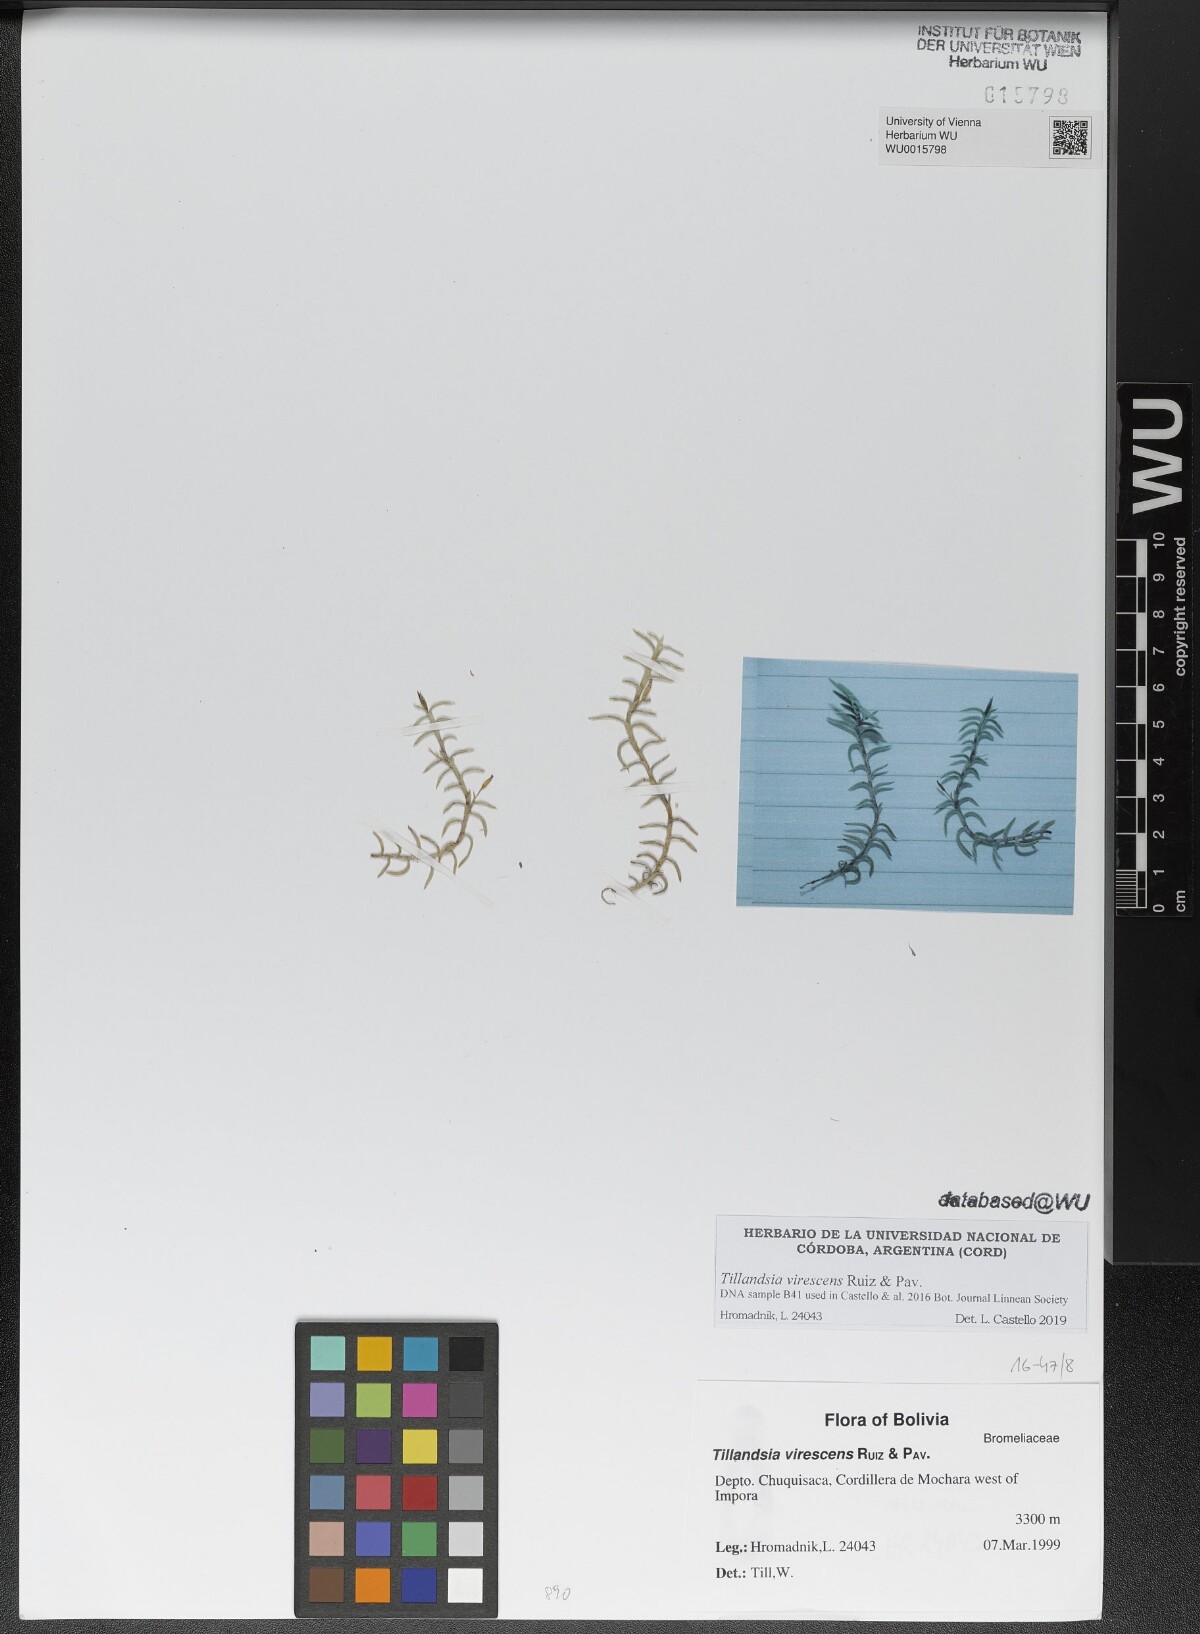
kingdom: Plantae
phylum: Tracheophyta
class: Liliopsida
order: Poales
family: Bromeliaceae
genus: Tillandsia
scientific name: Tillandsia virescens
